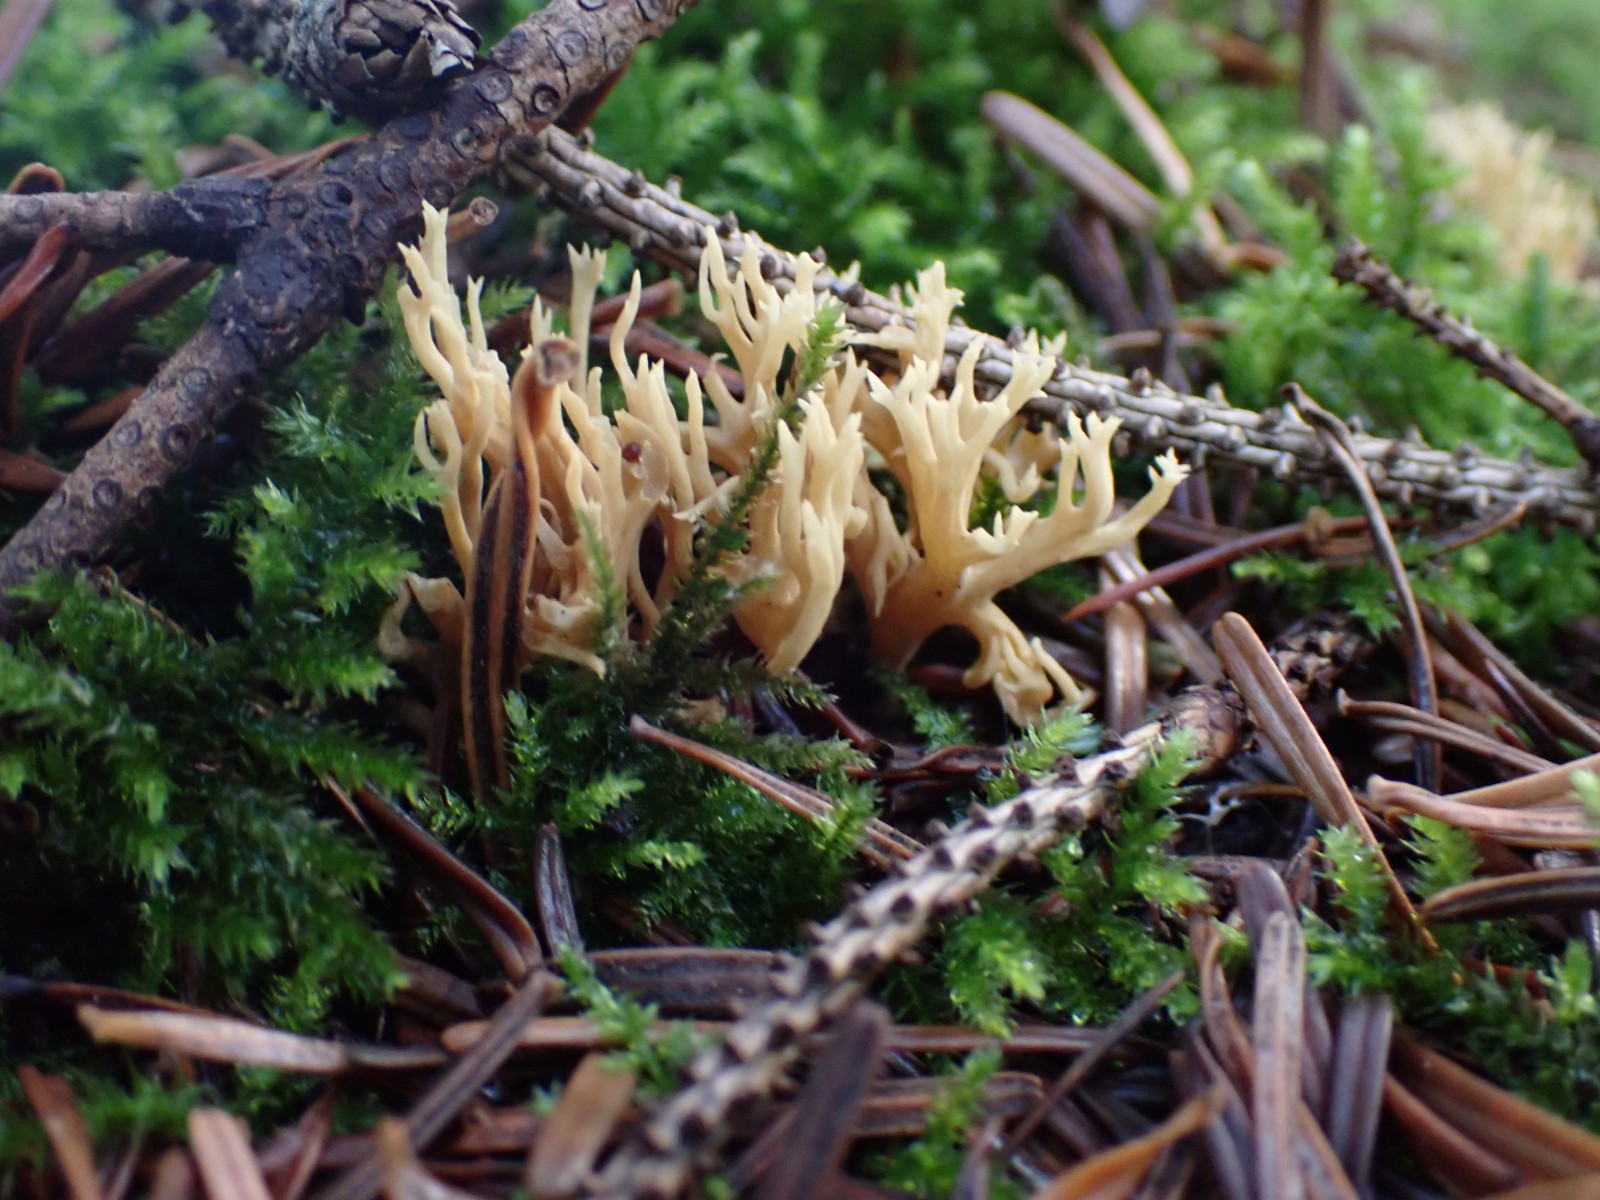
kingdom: Fungi
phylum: Basidiomycota
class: Agaricomycetes
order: Gomphales
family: Gomphaceae
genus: Phaeoclavulina
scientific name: Phaeoclavulina eumorpha
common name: gran-koralsvamp
